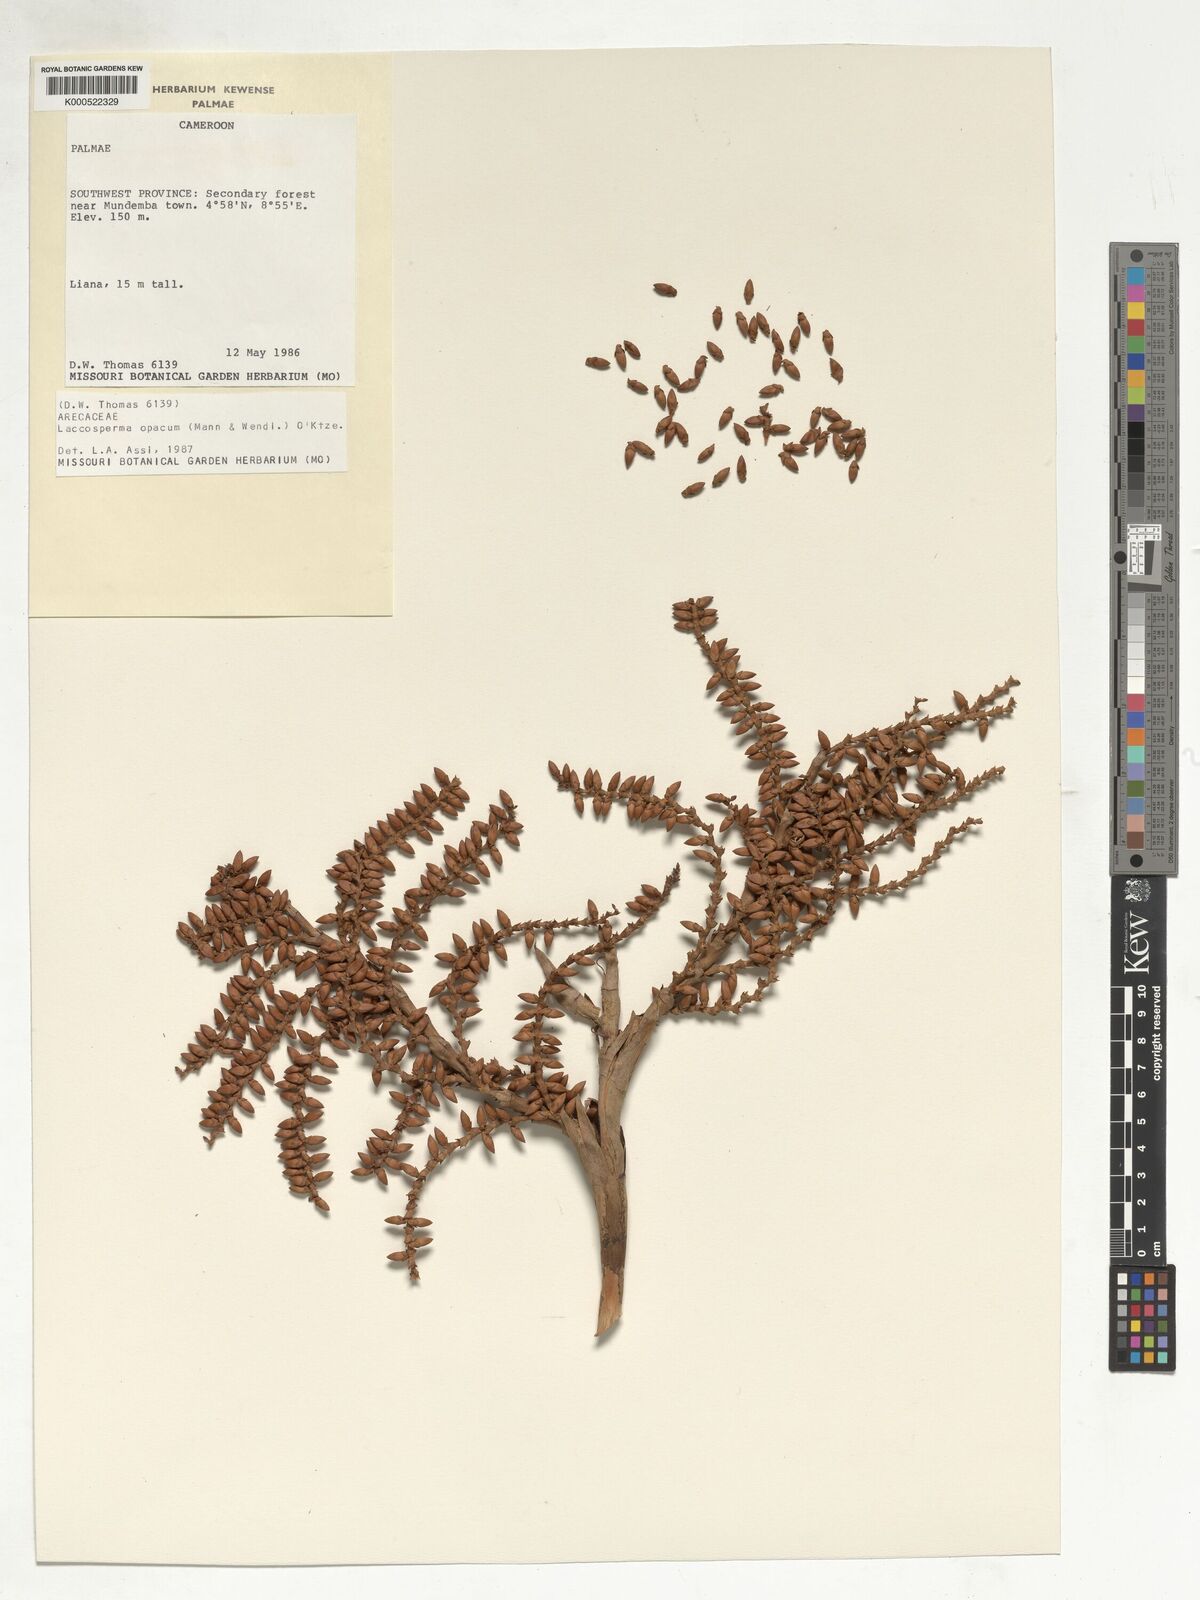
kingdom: Plantae
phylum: Tracheophyta
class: Liliopsida
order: Arecales
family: Arecaceae
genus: Laccosperma
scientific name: Laccosperma opacum
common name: Rattan
